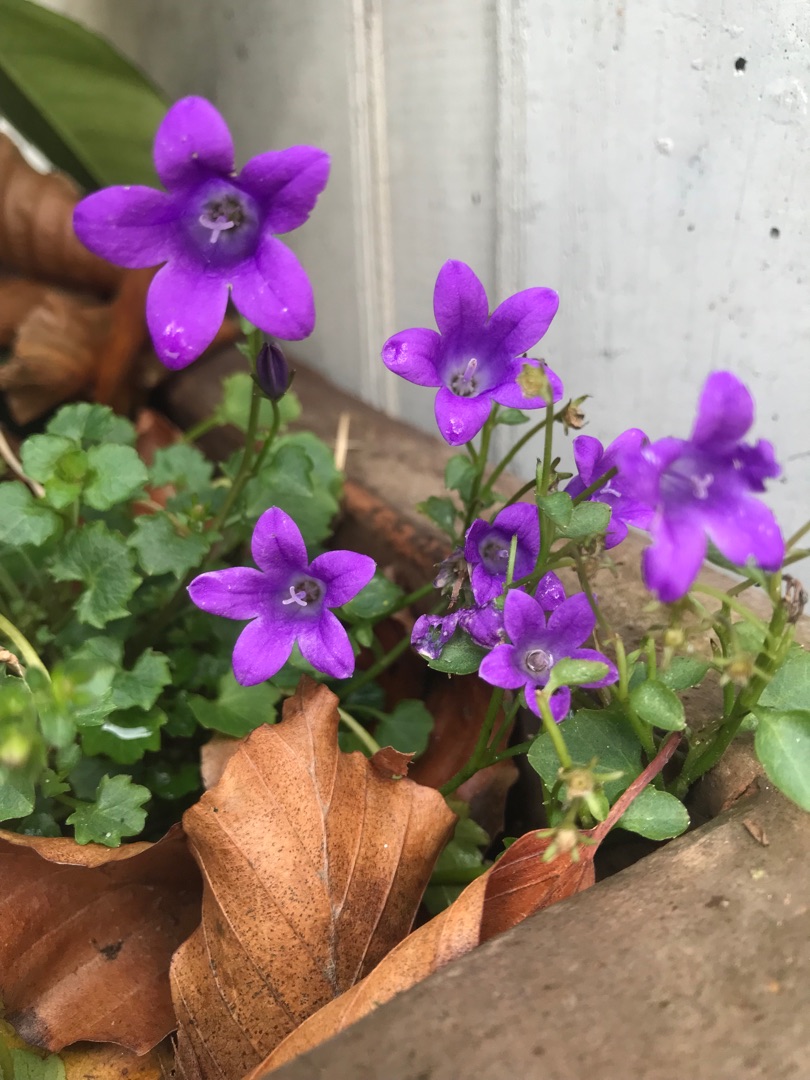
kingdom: Plantae
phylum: Tracheophyta
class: Magnoliopsida
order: Asterales
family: Campanulaceae
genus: Campanula
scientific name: Campanula portenschlagiana
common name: Krybe-klokke
